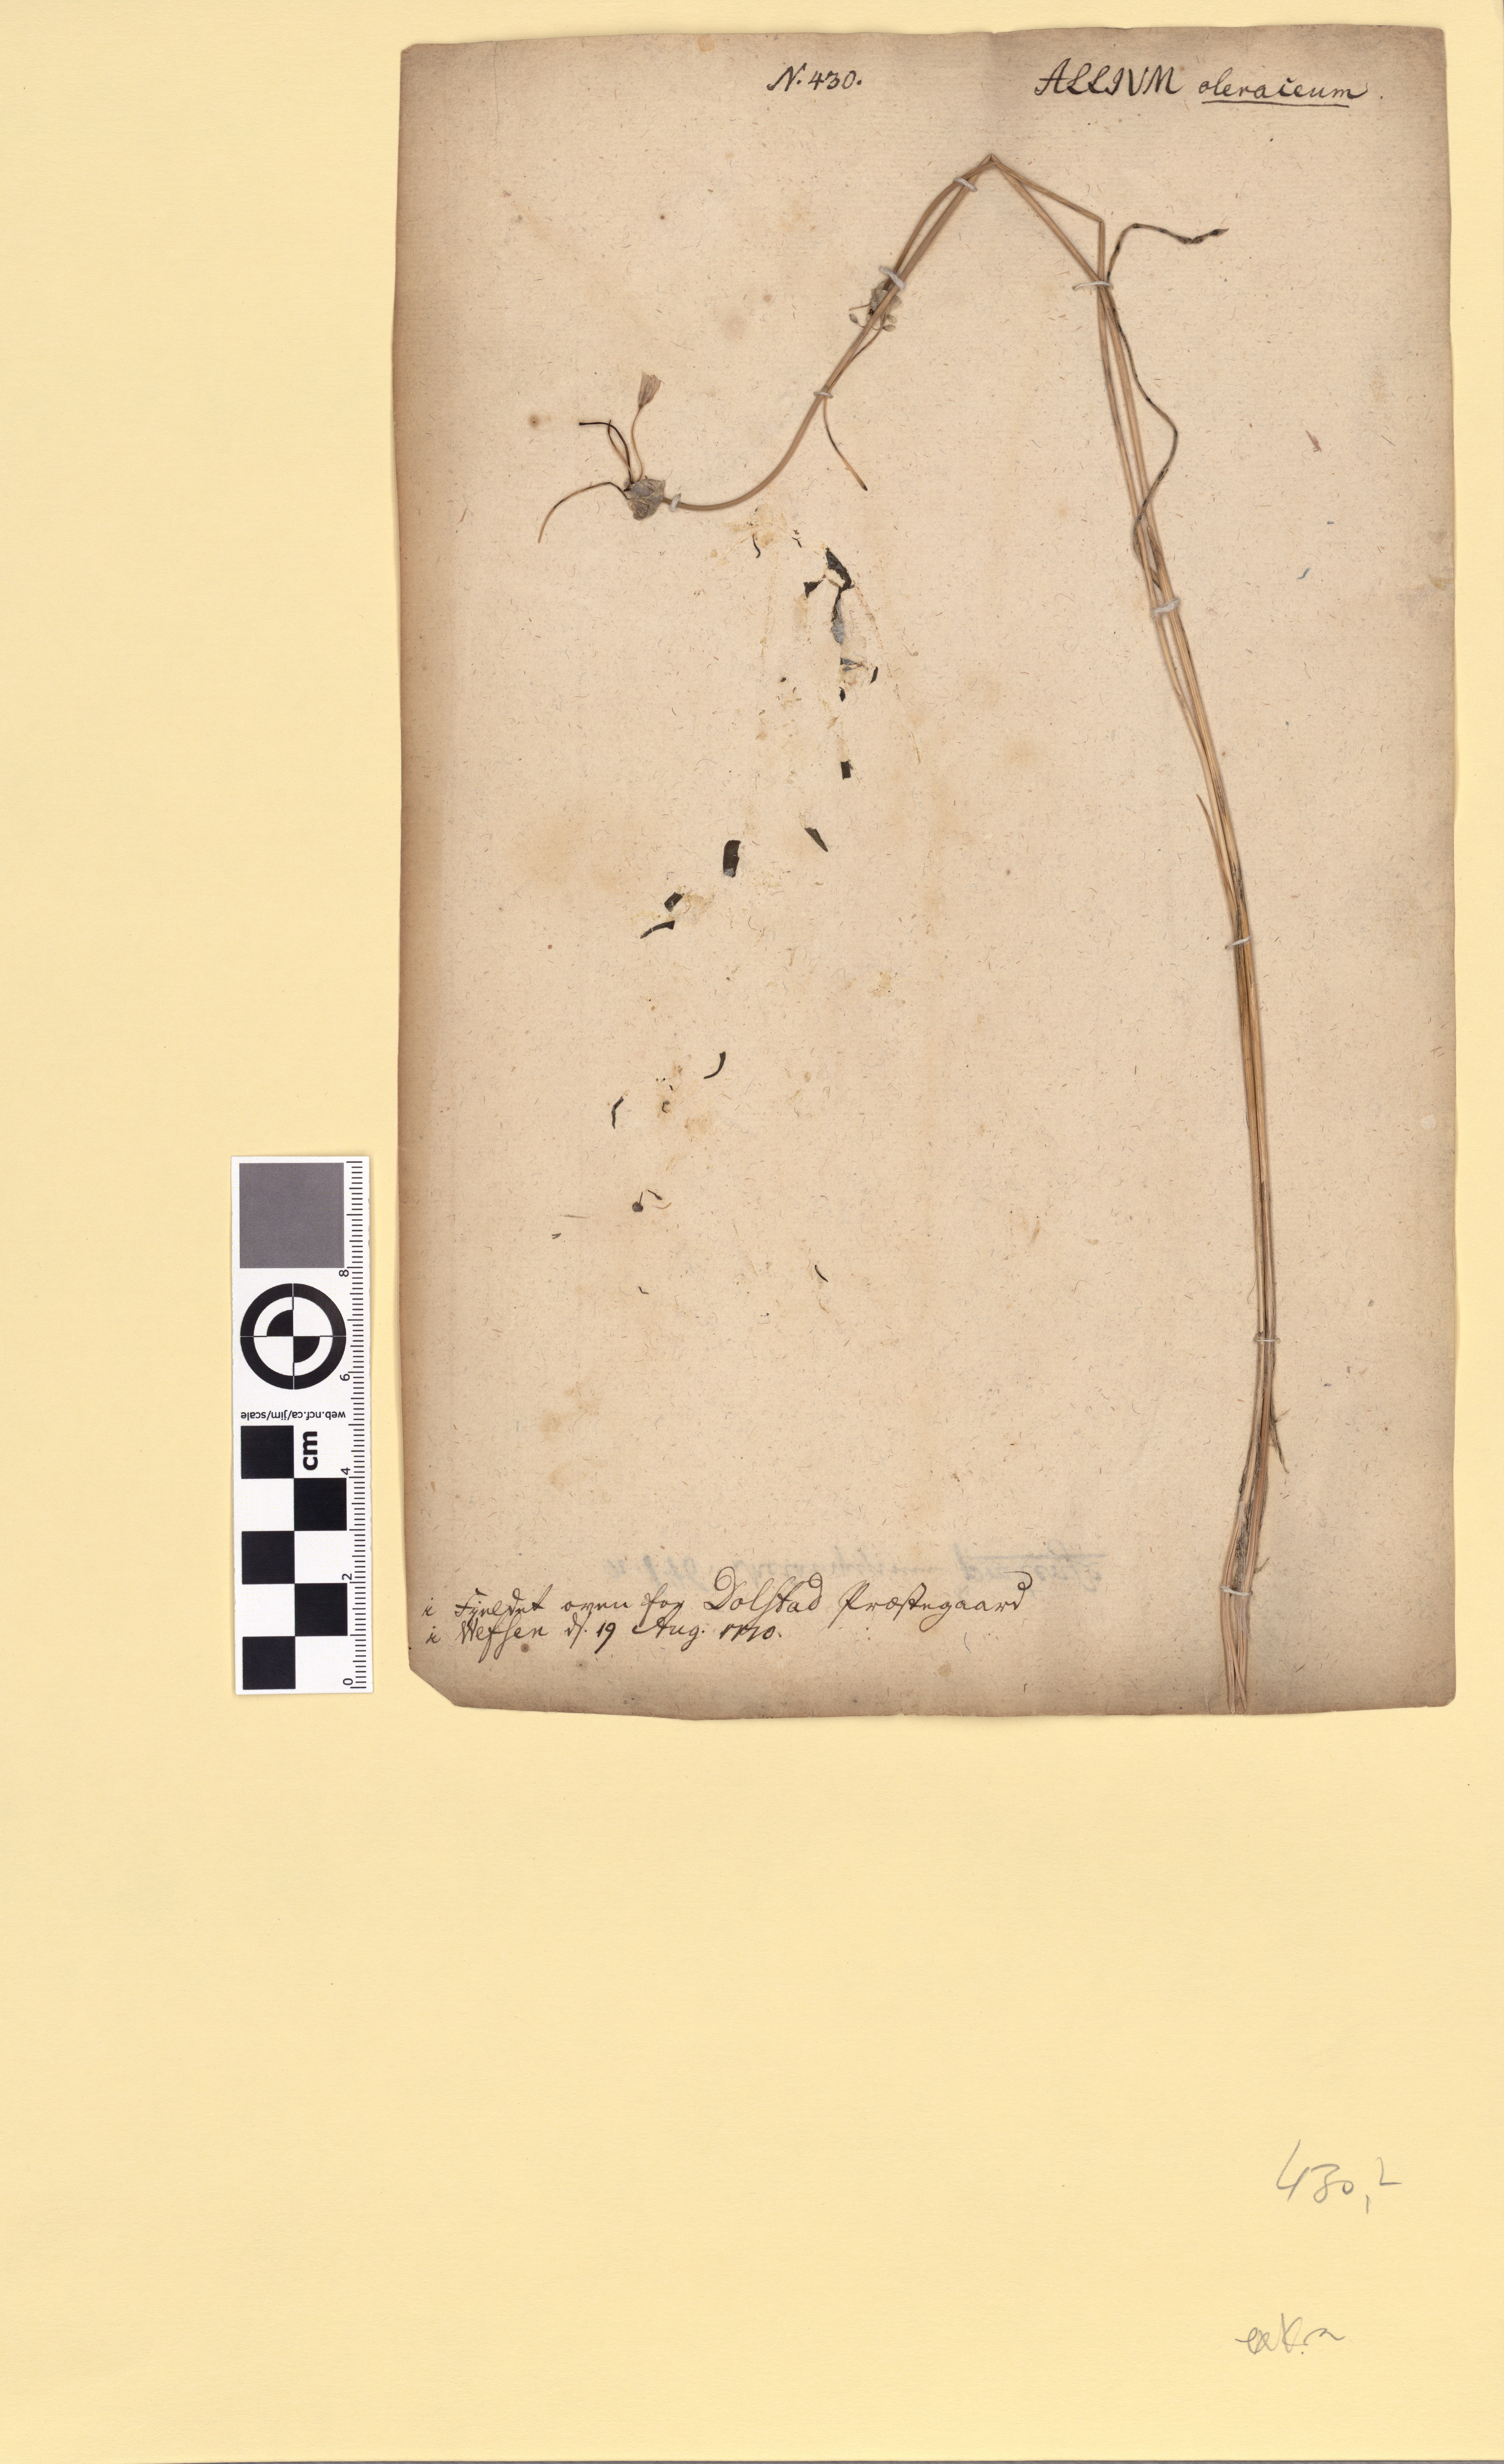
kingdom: Plantae
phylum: Tracheophyta
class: Liliopsida
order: Asparagales
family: Amaryllidaceae
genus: Allium
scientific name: Allium oleraceum
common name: Field garlic
